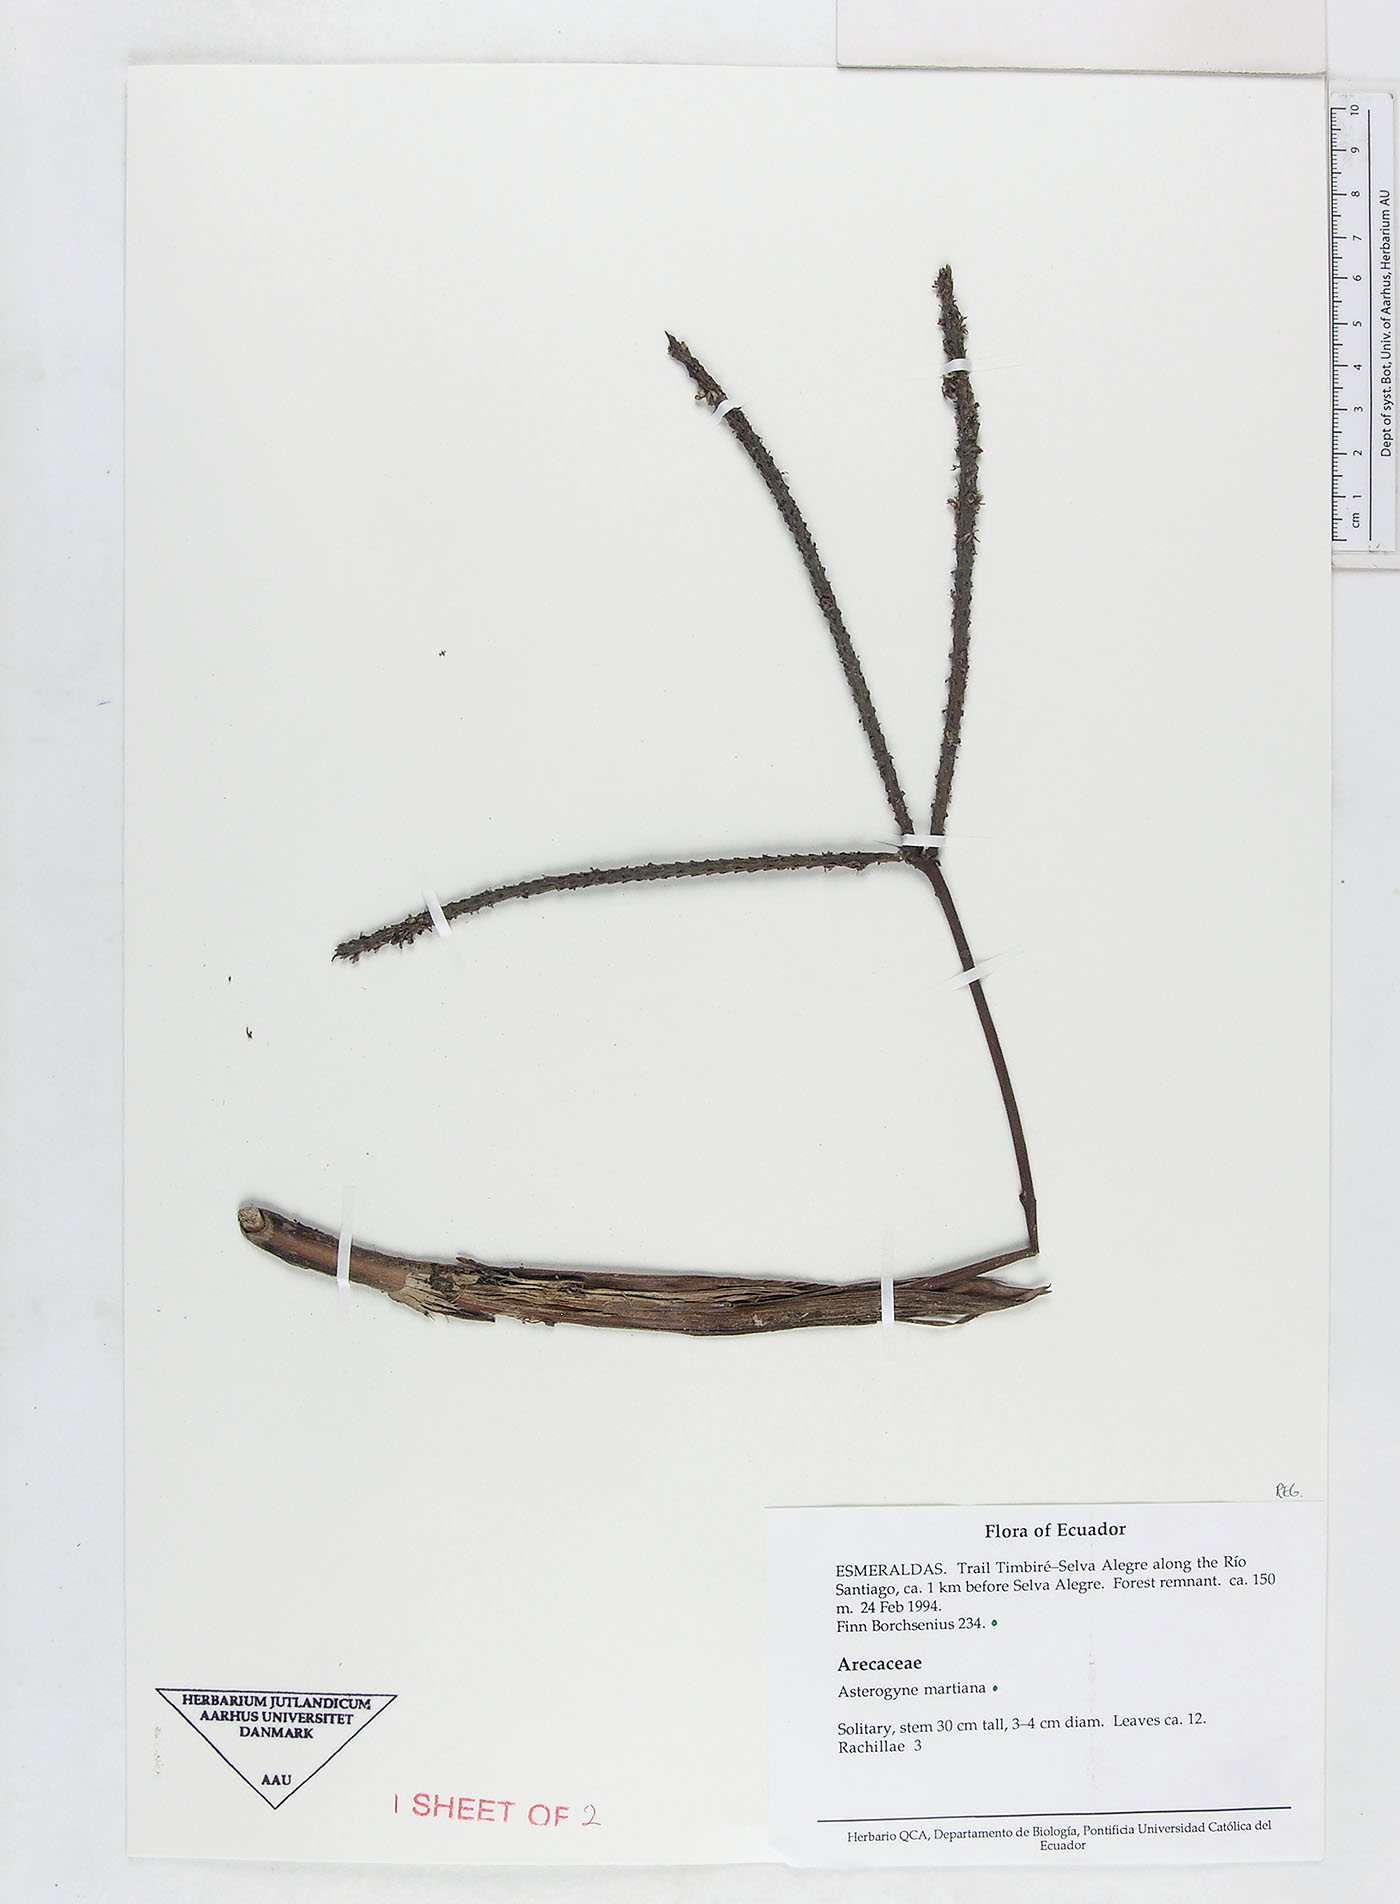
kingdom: Plantae
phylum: Tracheophyta
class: Liliopsida
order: Arecales
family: Arecaceae
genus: Asterogyne
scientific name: Asterogyne martiana
